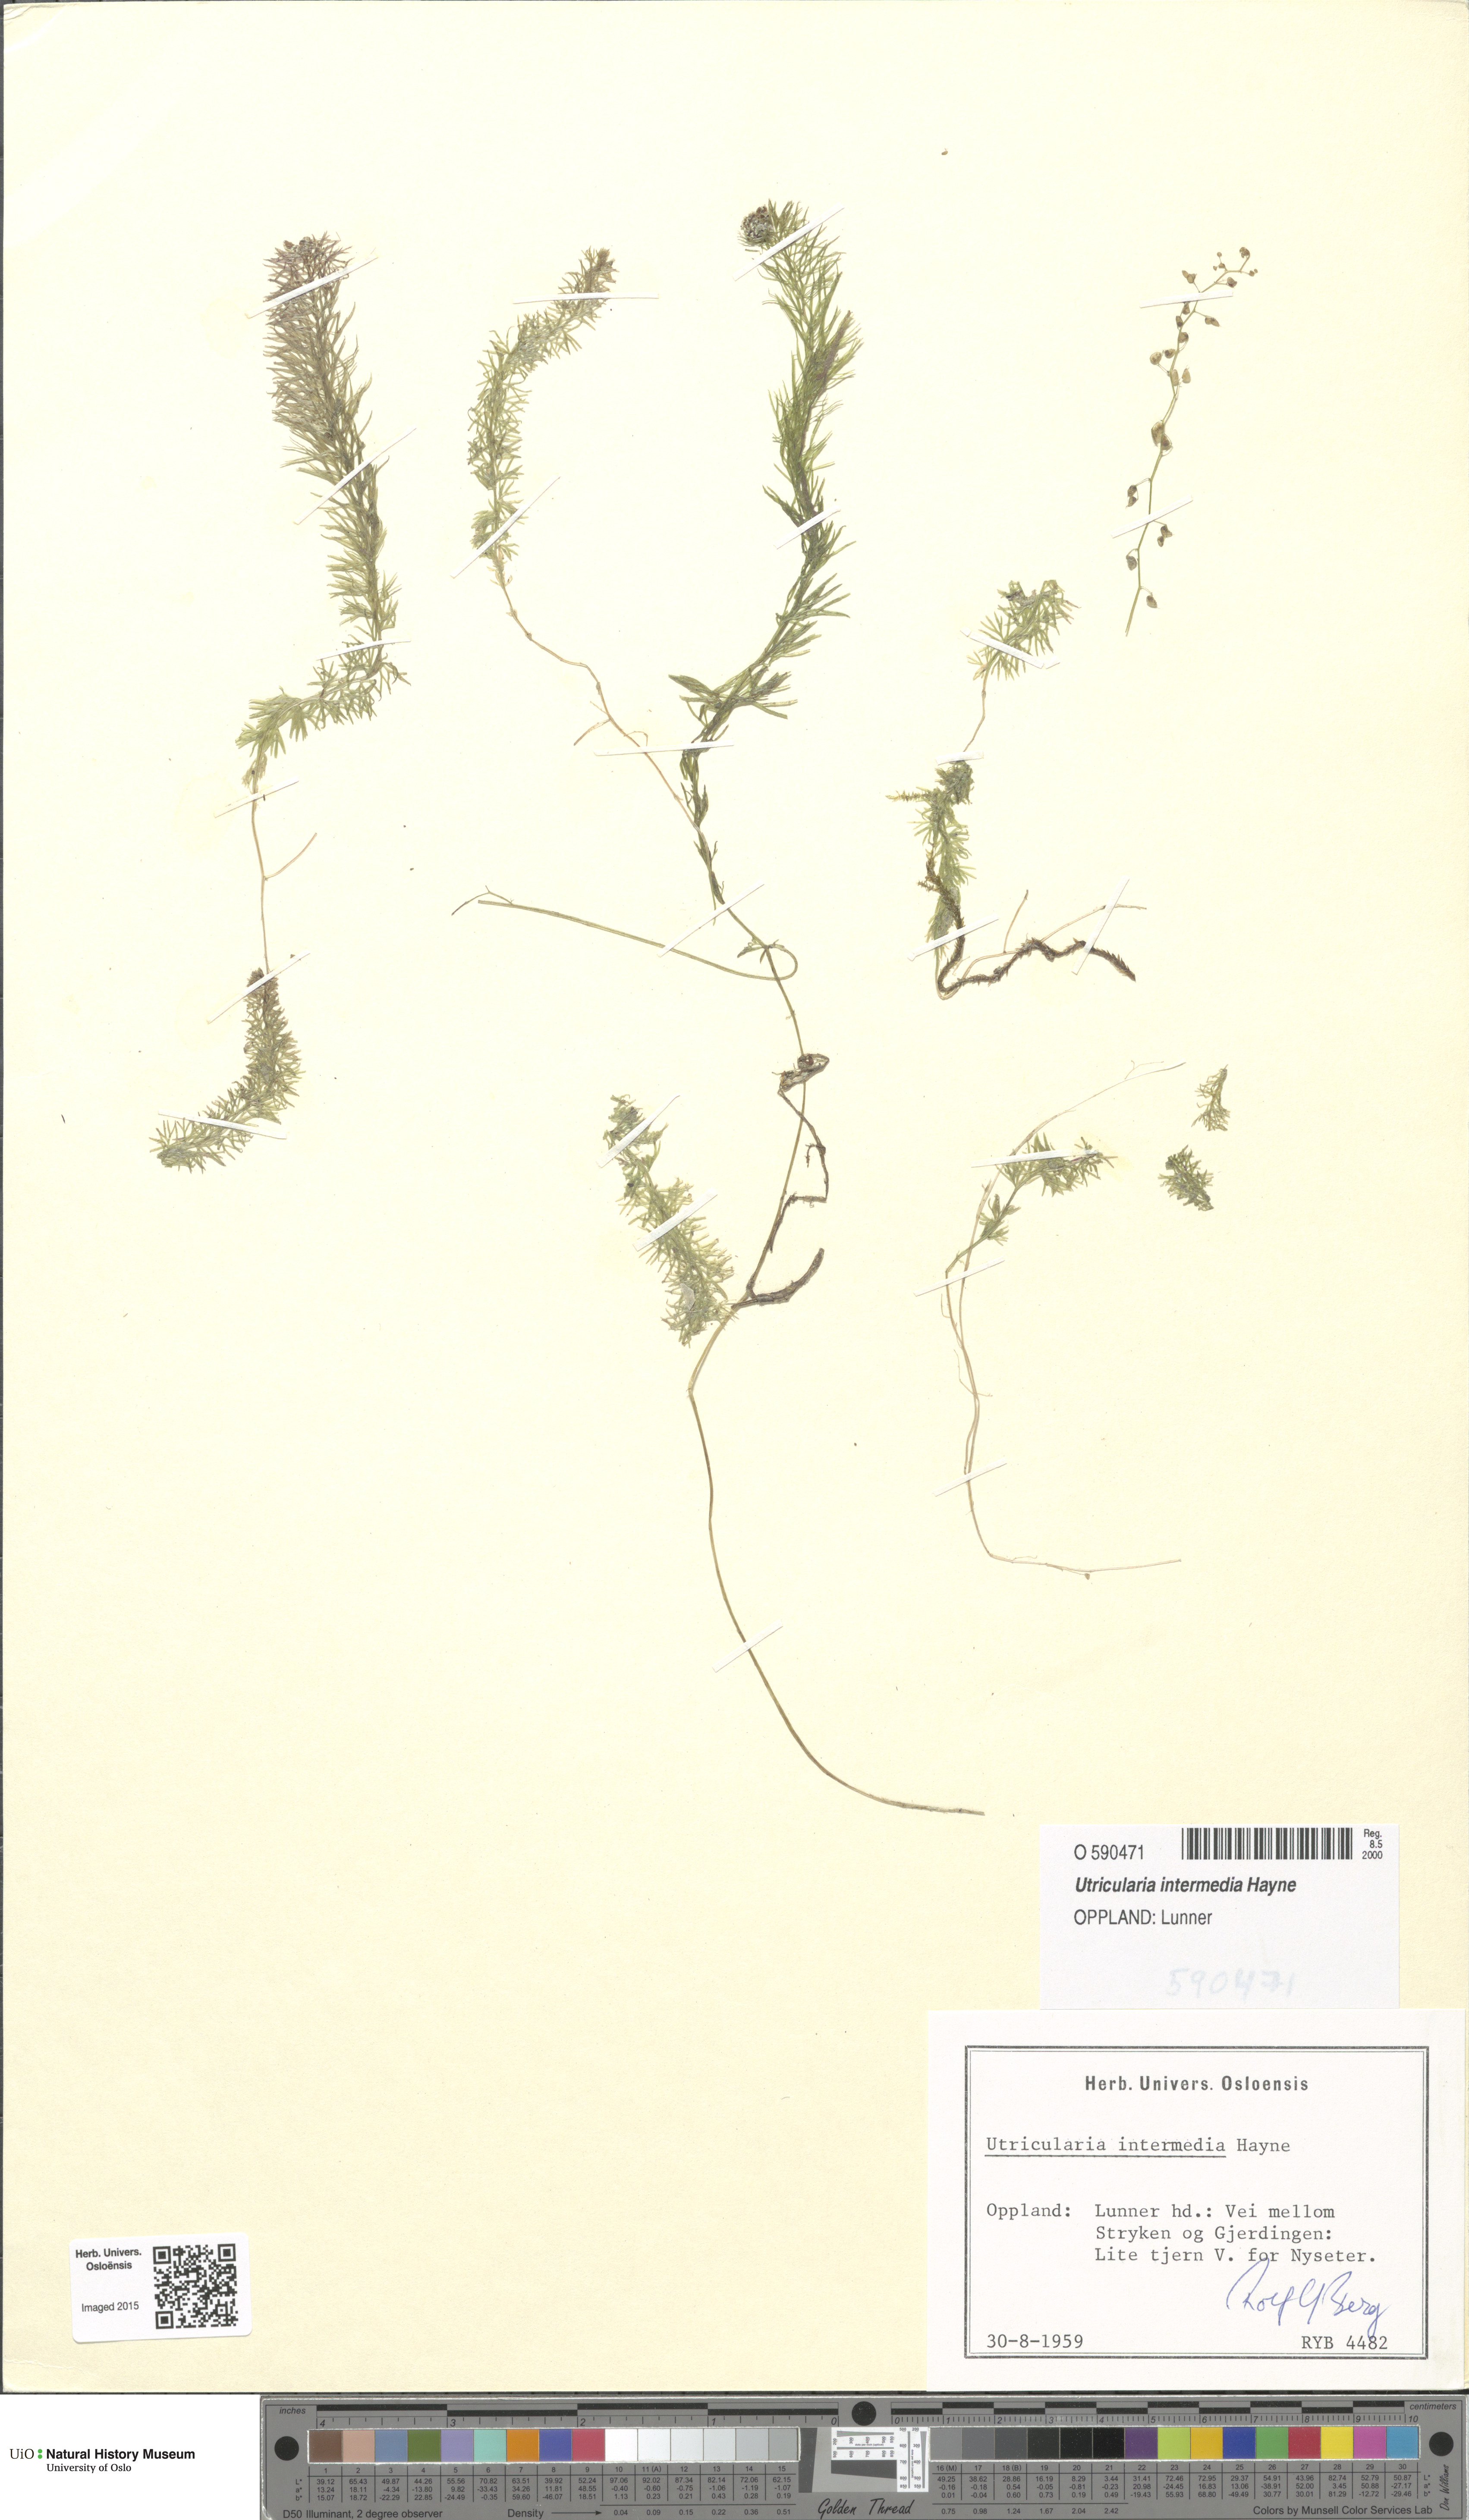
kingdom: Plantae
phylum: Tracheophyta
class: Magnoliopsida
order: Lamiales
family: Lentibulariaceae
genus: Utricularia
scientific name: Utricularia intermedia
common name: Intermediate bladderwort
